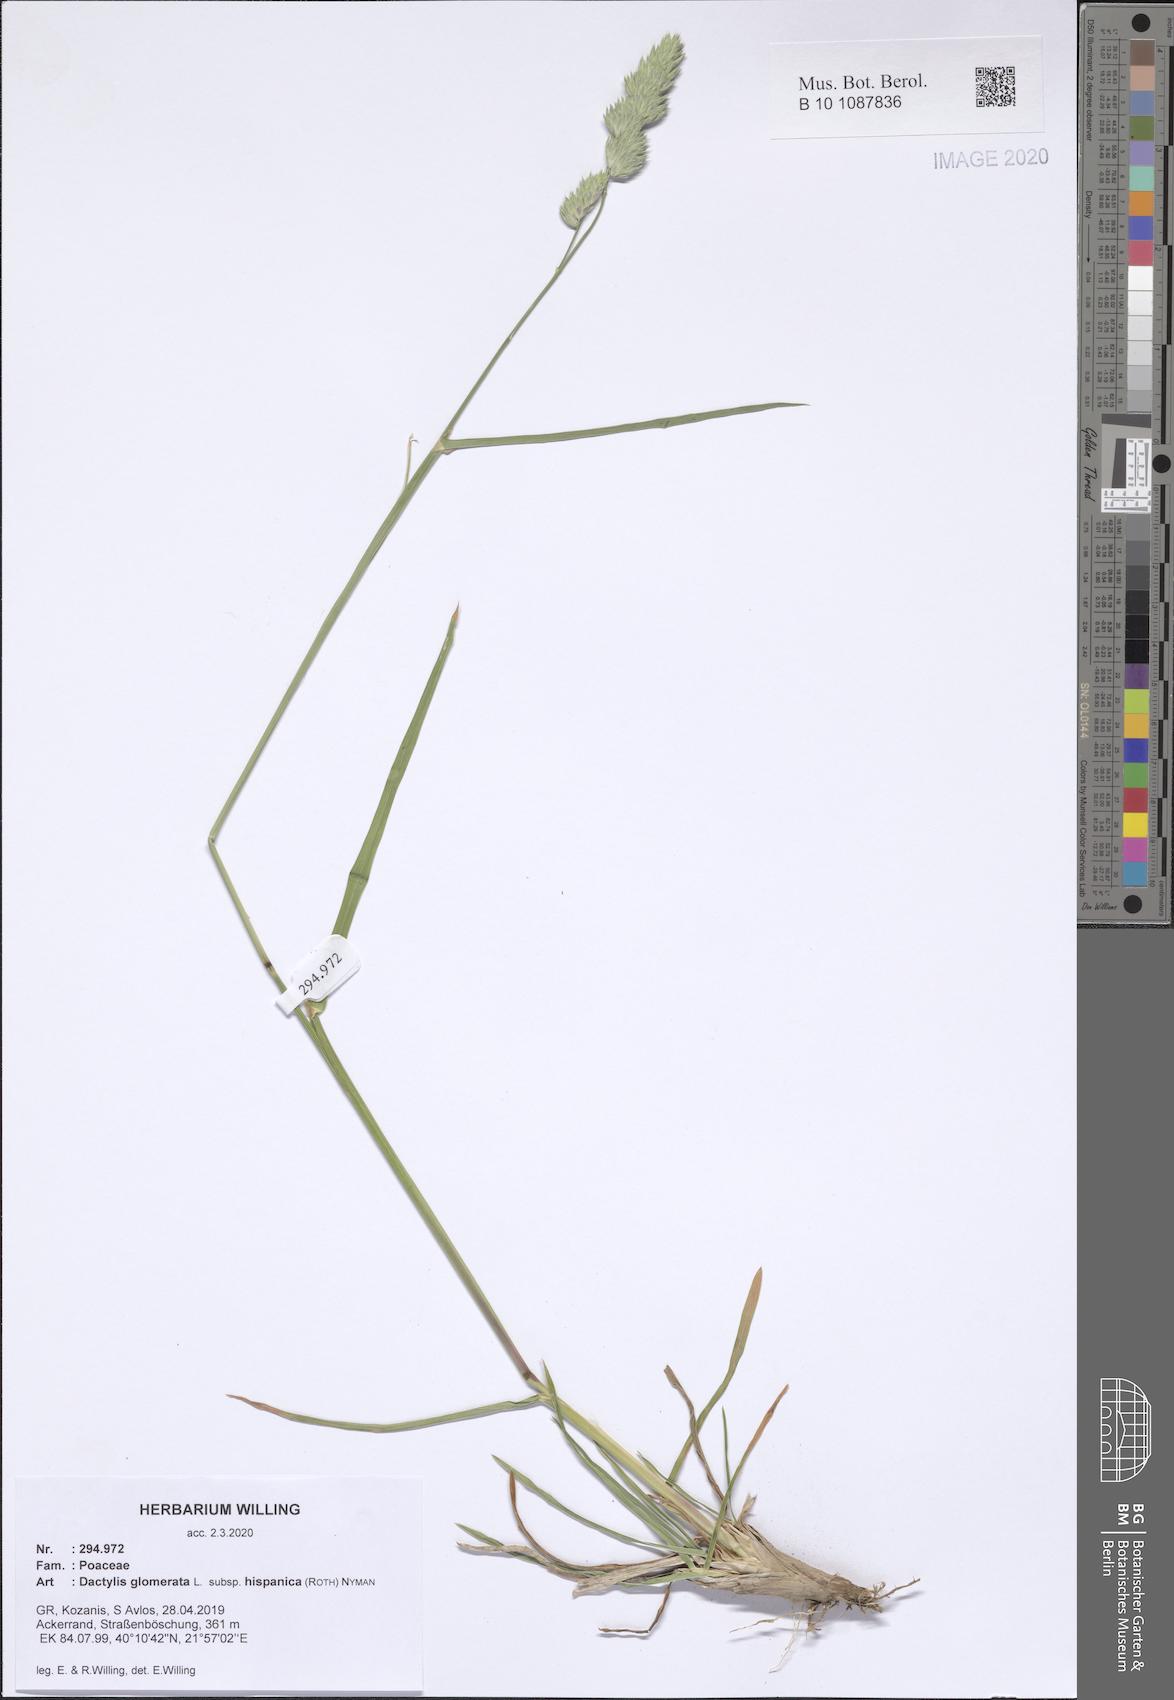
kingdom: Plantae
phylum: Tracheophyta
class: Liliopsida
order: Poales
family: Poaceae
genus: Dactylis
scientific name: Dactylis glomerata
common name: Orchardgrass
